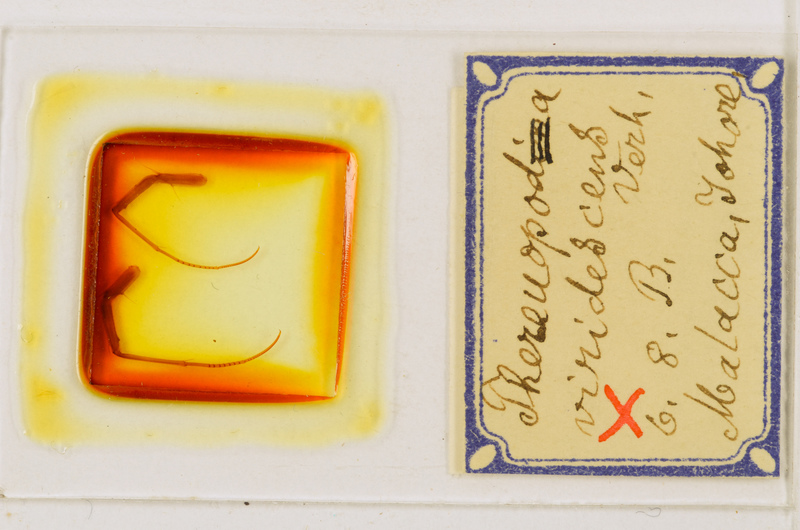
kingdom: Animalia
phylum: Arthropoda
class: Chilopoda
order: Scutigeromorpha
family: Scutigeridae
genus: Thereuopoda
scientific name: Thereuopoda longicornis
